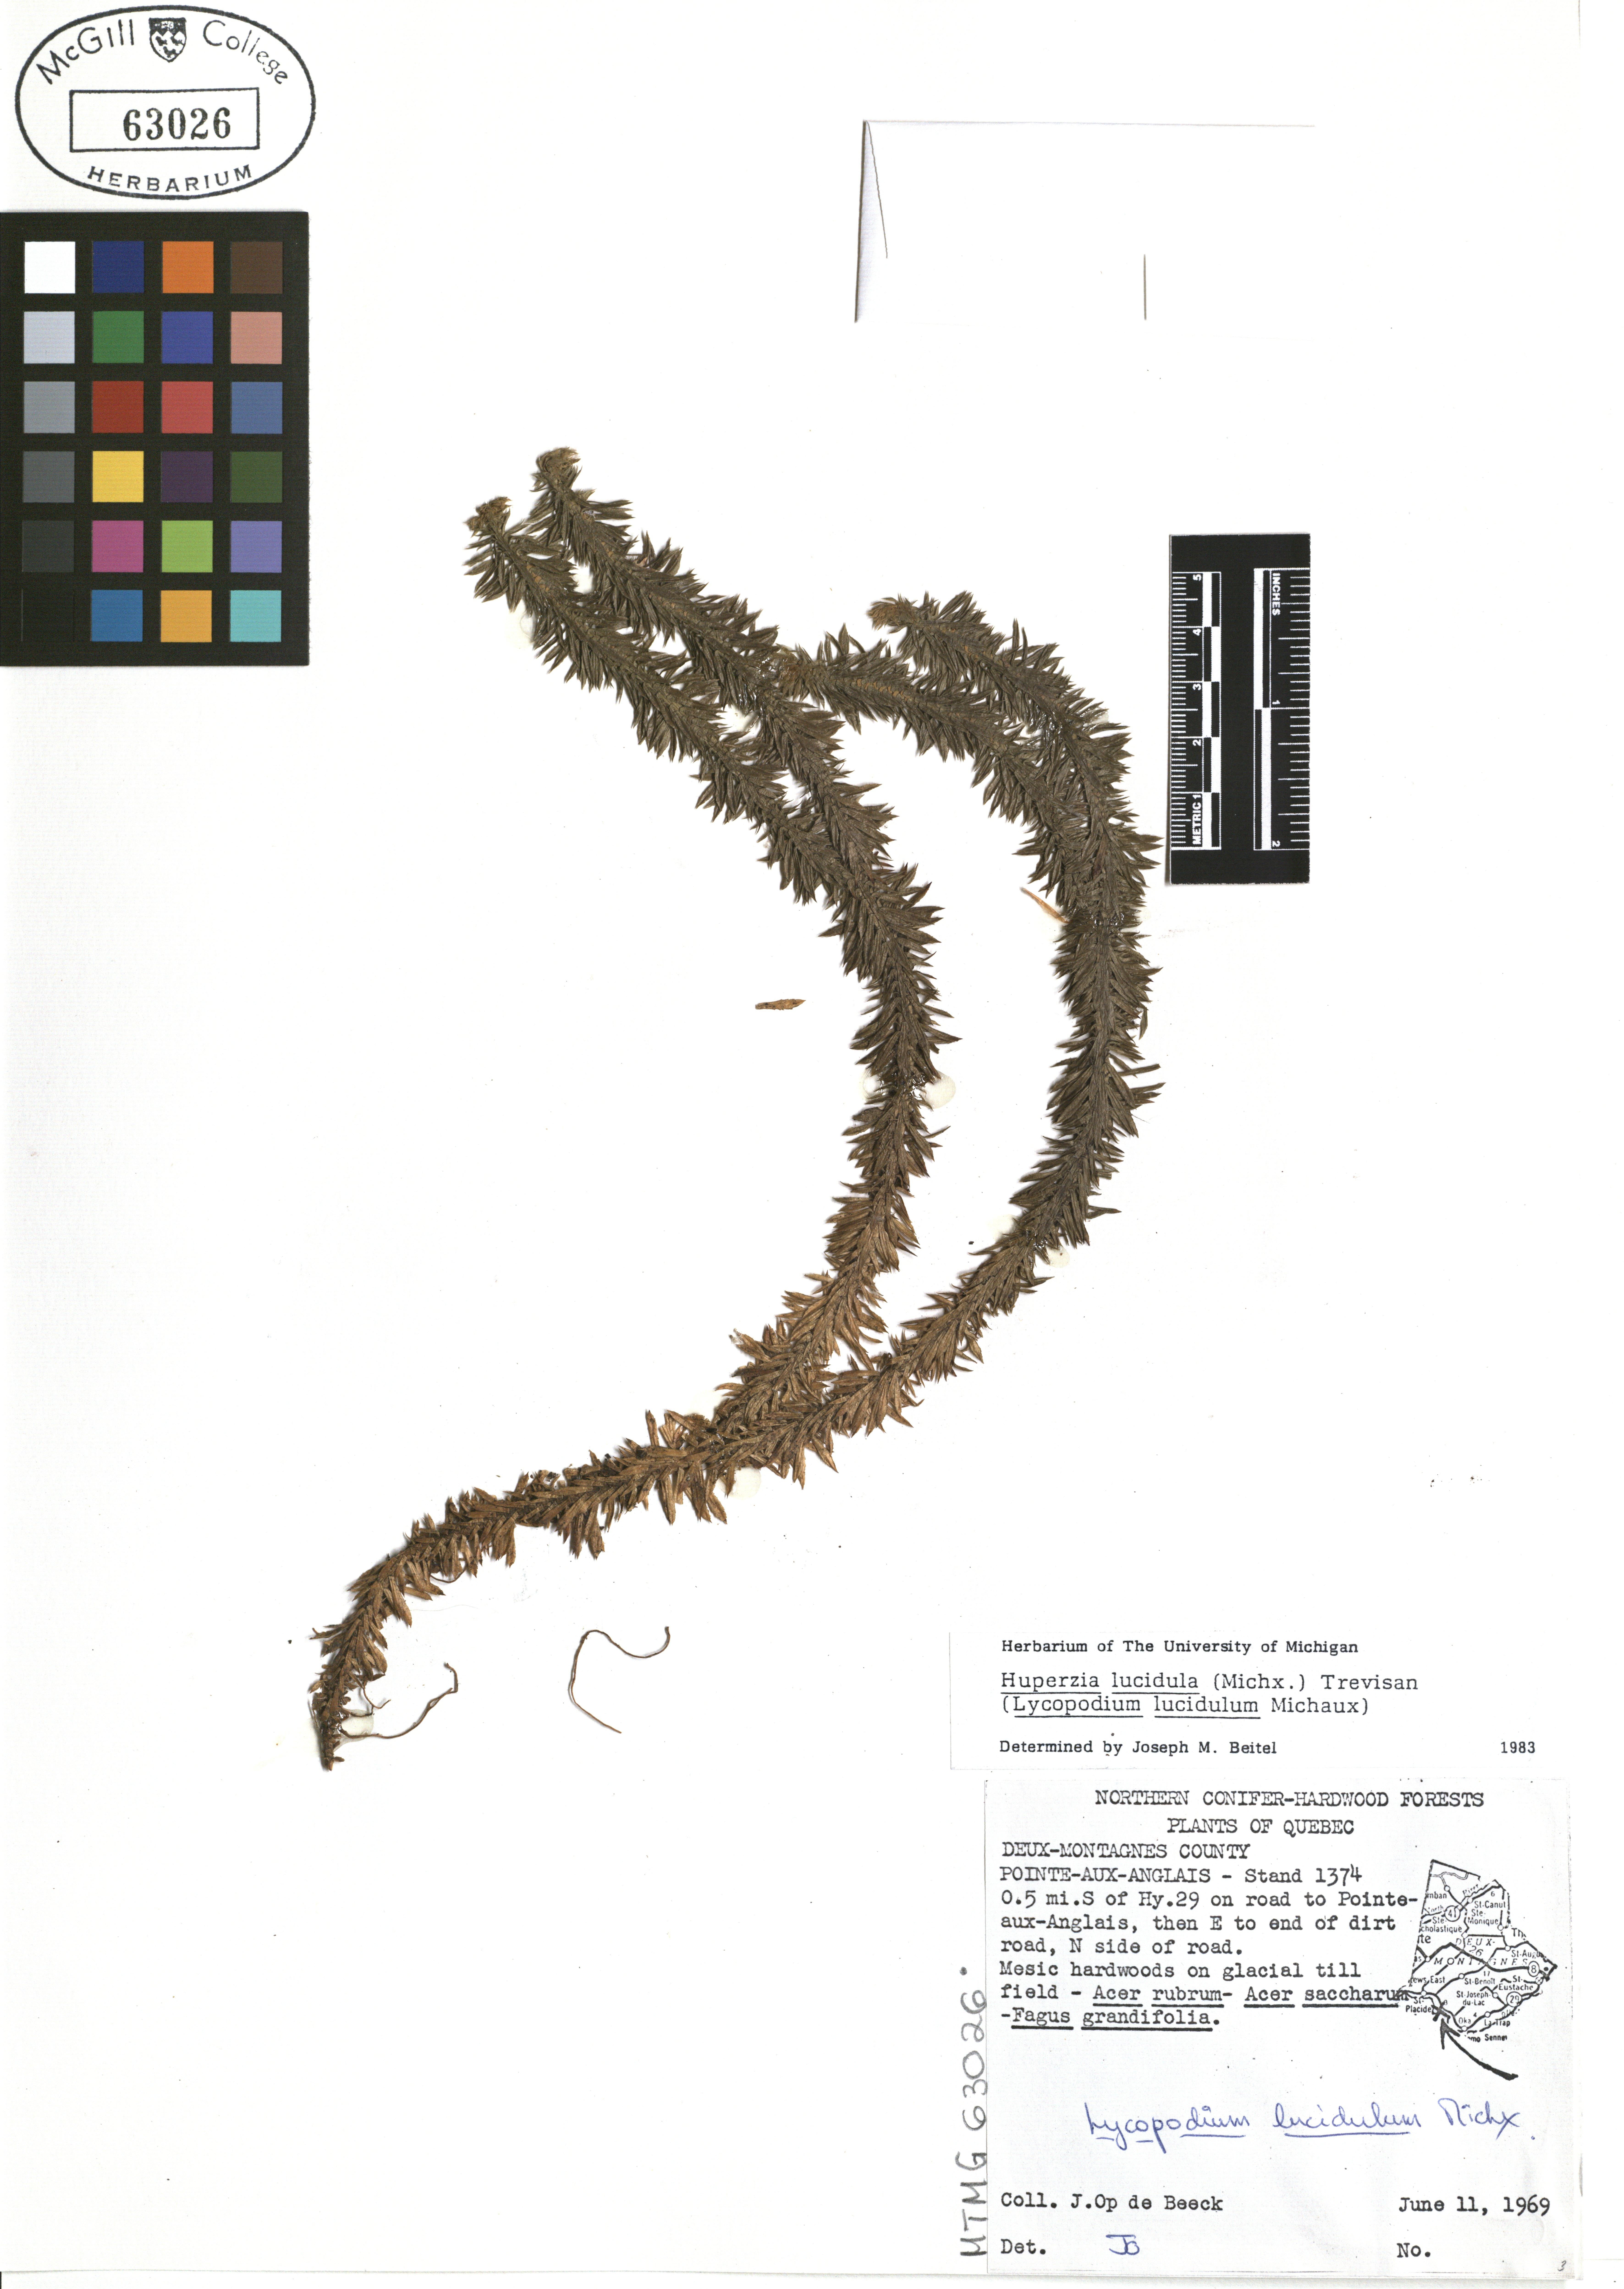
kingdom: Plantae
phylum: Tracheophyta
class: Lycopodiopsida
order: Lycopodiales
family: Lycopodiaceae
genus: Huperzia
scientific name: Huperzia lucidula
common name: Shining clubmoss
